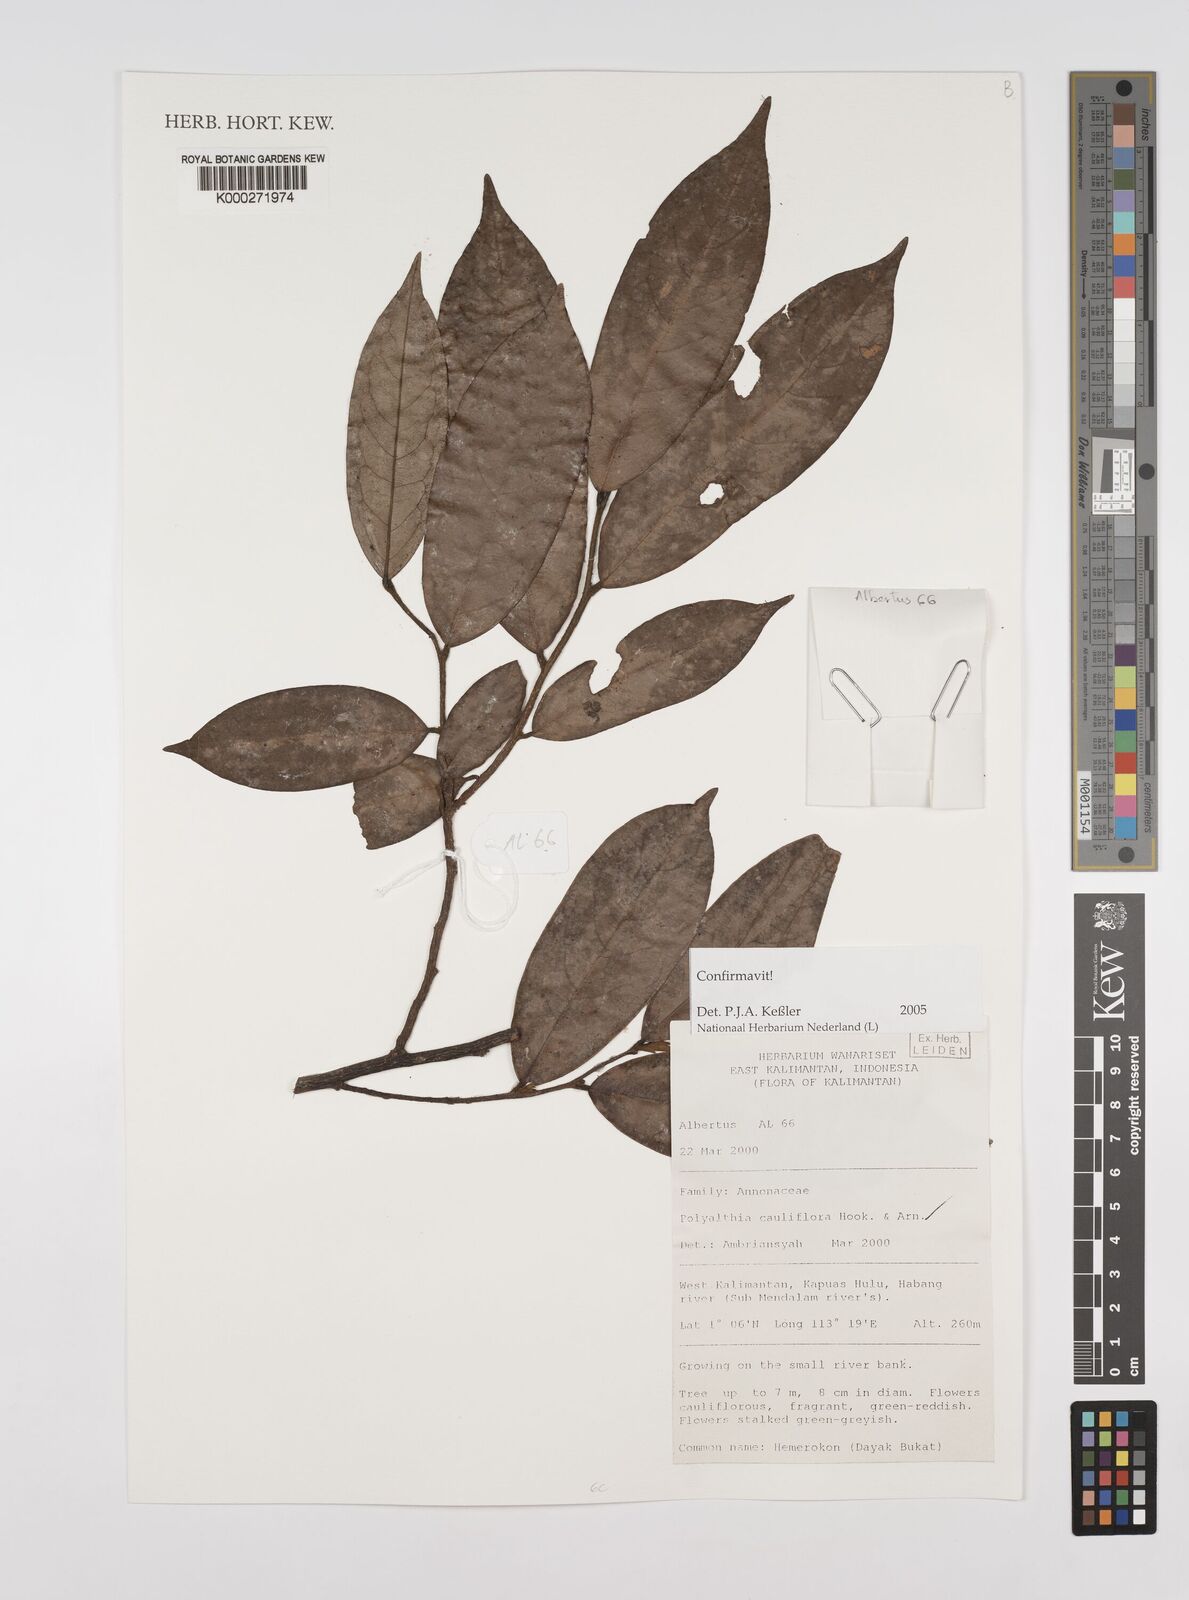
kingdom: Plantae
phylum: Tracheophyta
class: Magnoliopsida
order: Magnoliales
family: Annonaceae
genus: Polyalthia
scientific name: Polyalthia cauliflora
